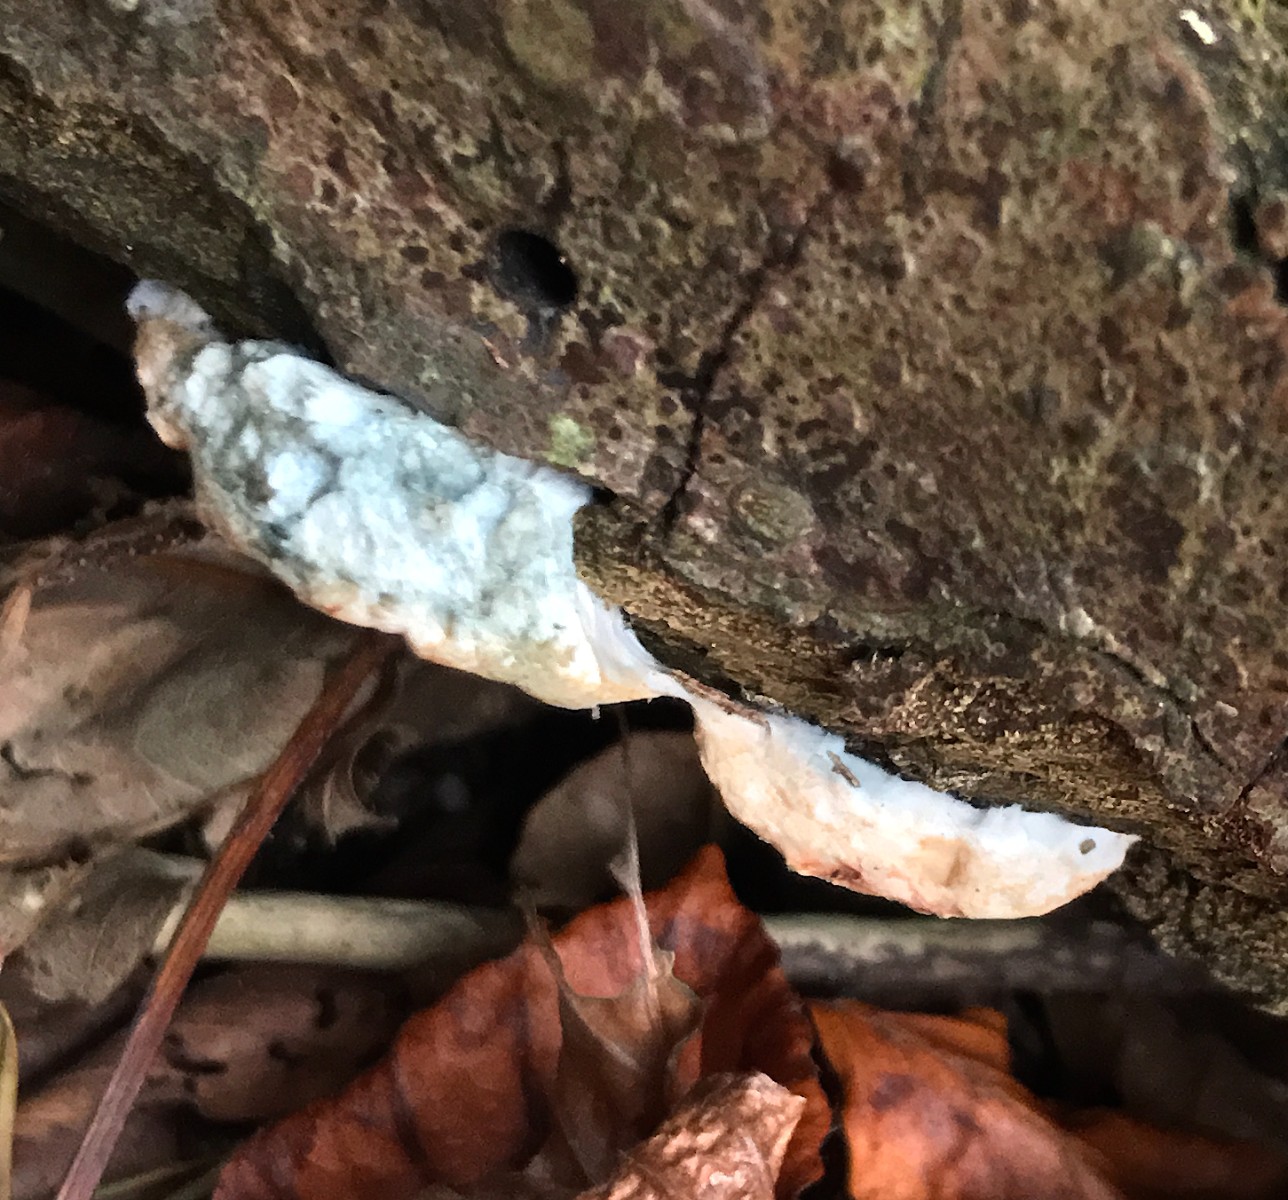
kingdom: Fungi
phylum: Basidiomycota
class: Agaricomycetes
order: Polyporales
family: Polyporaceae
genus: Cyanosporus
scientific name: Cyanosporus caesius
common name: blålig kødporesvamp
